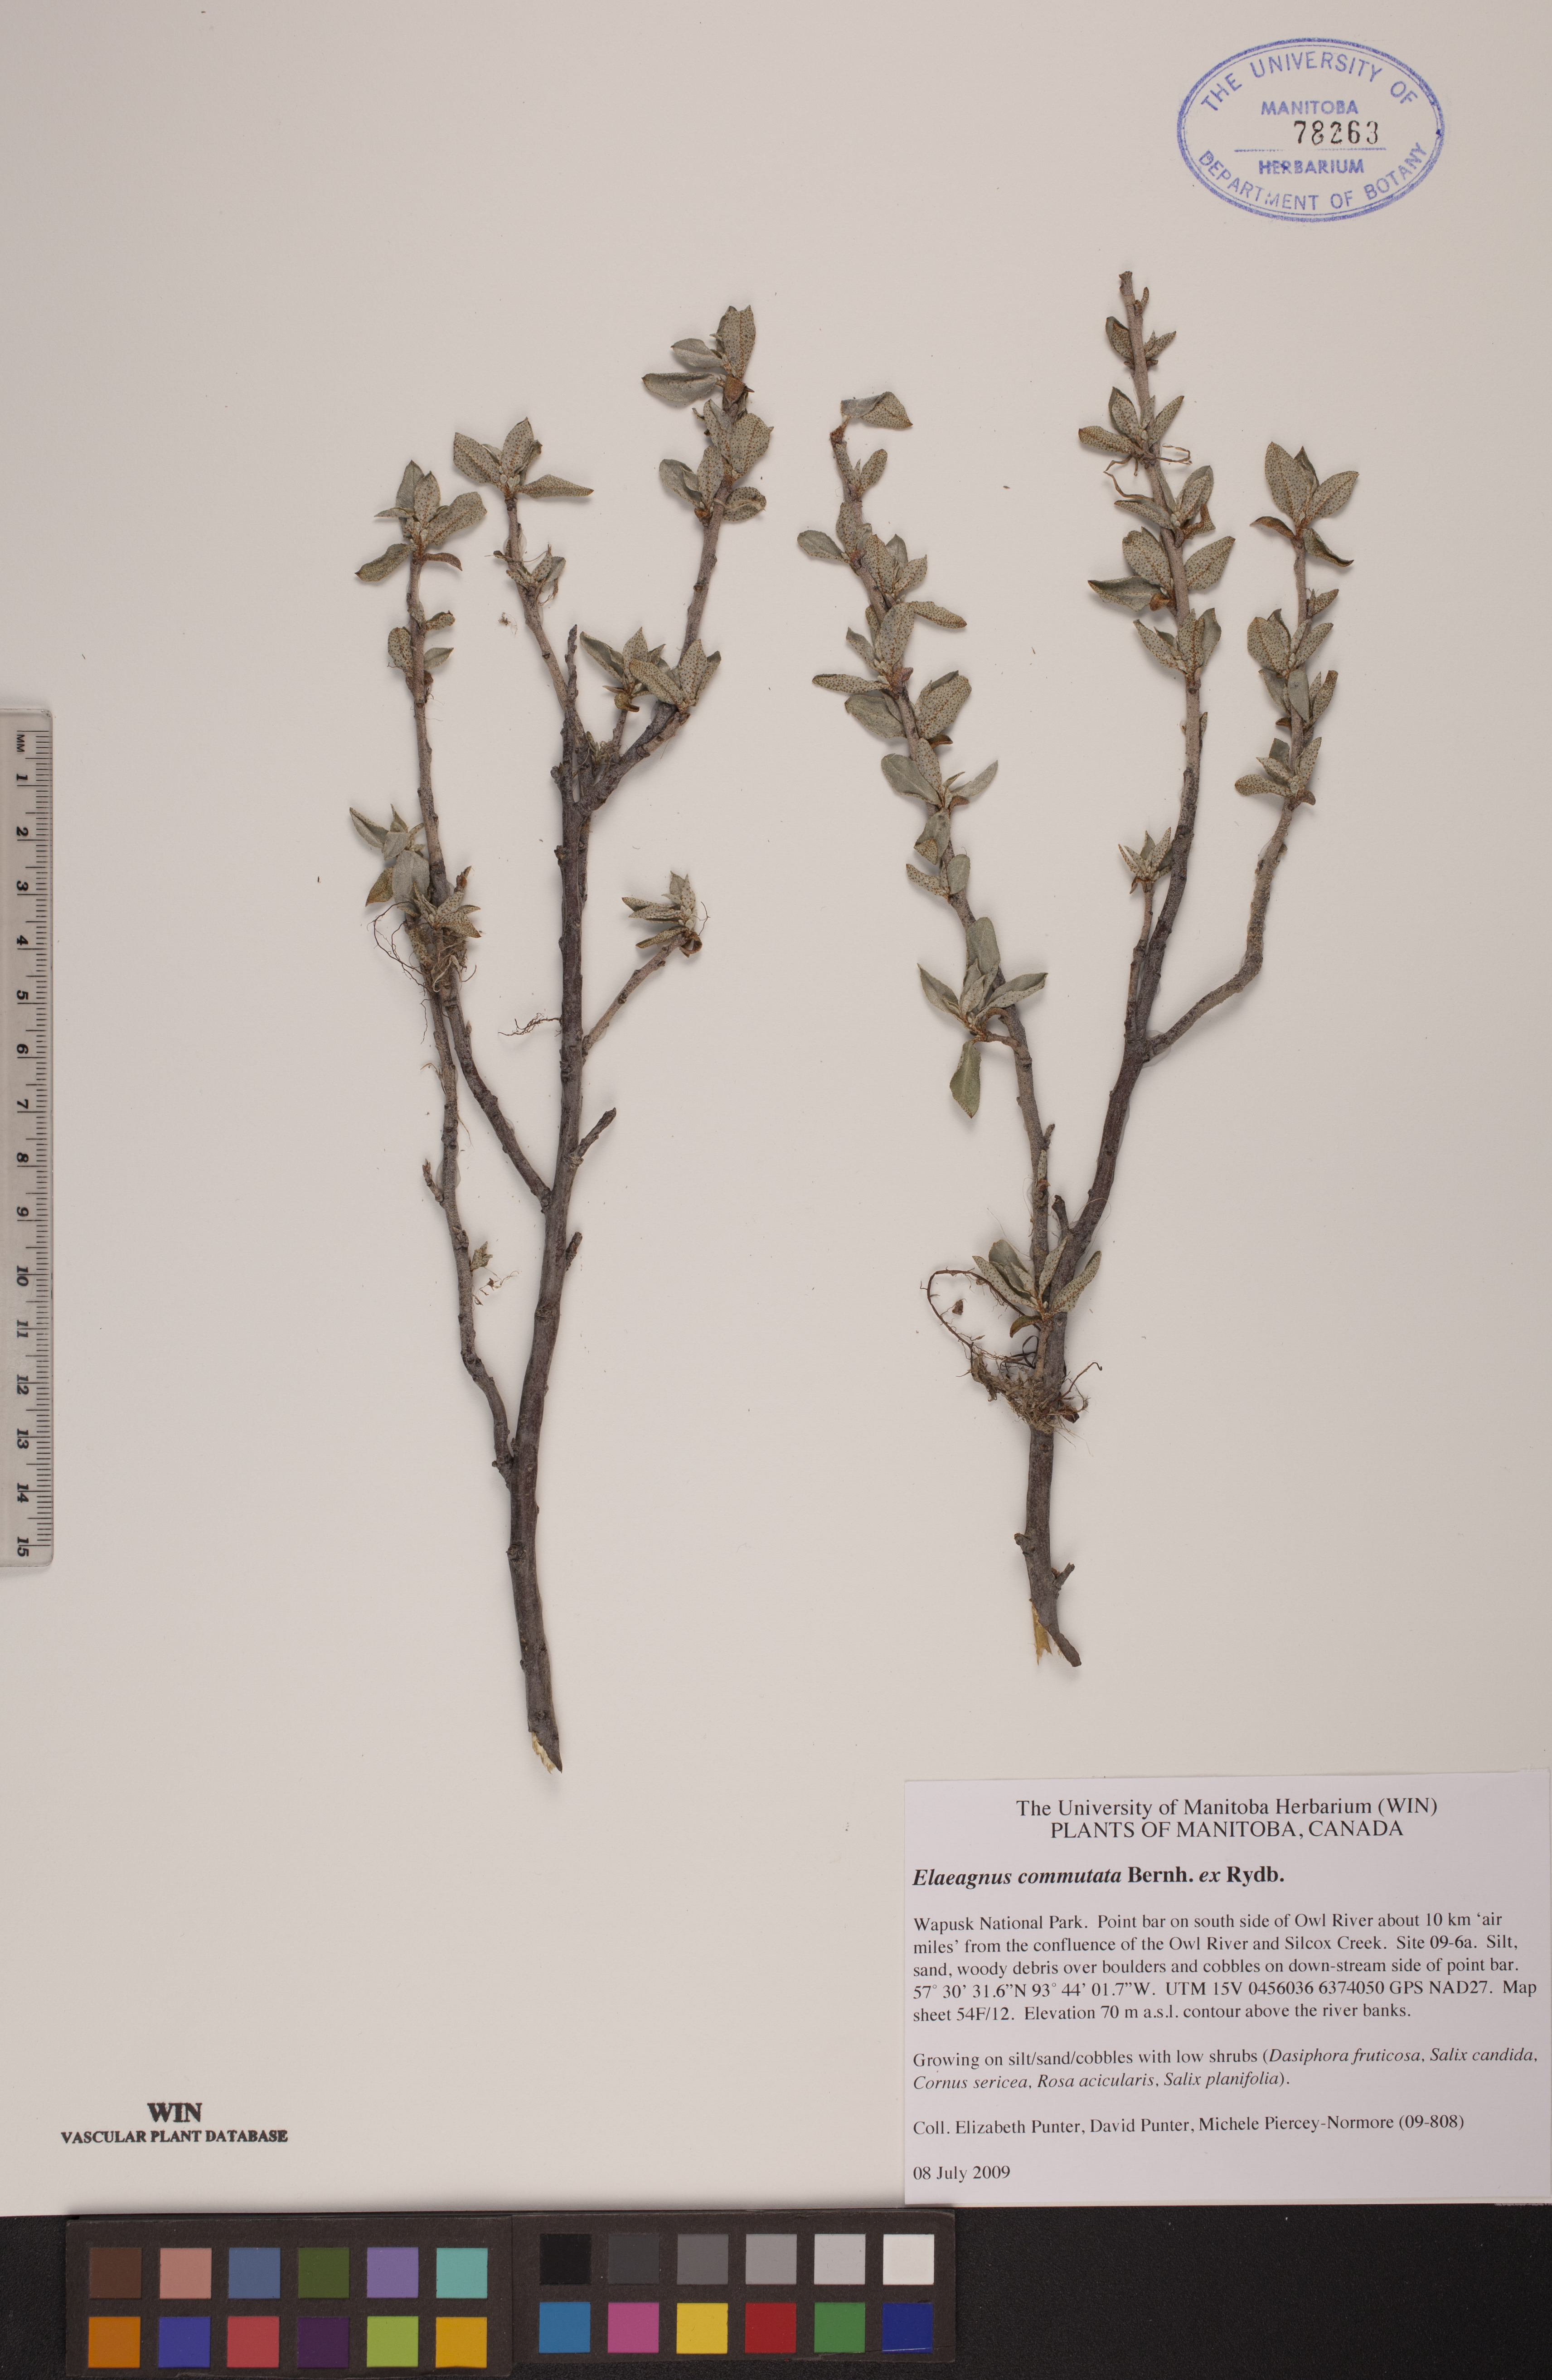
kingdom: Plantae
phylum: Tracheophyta
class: Magnoliopsida
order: Rosales
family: Elaeagnaceae
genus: Elaeagnus
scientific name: Elaeagnus commutata
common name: Silverberry
